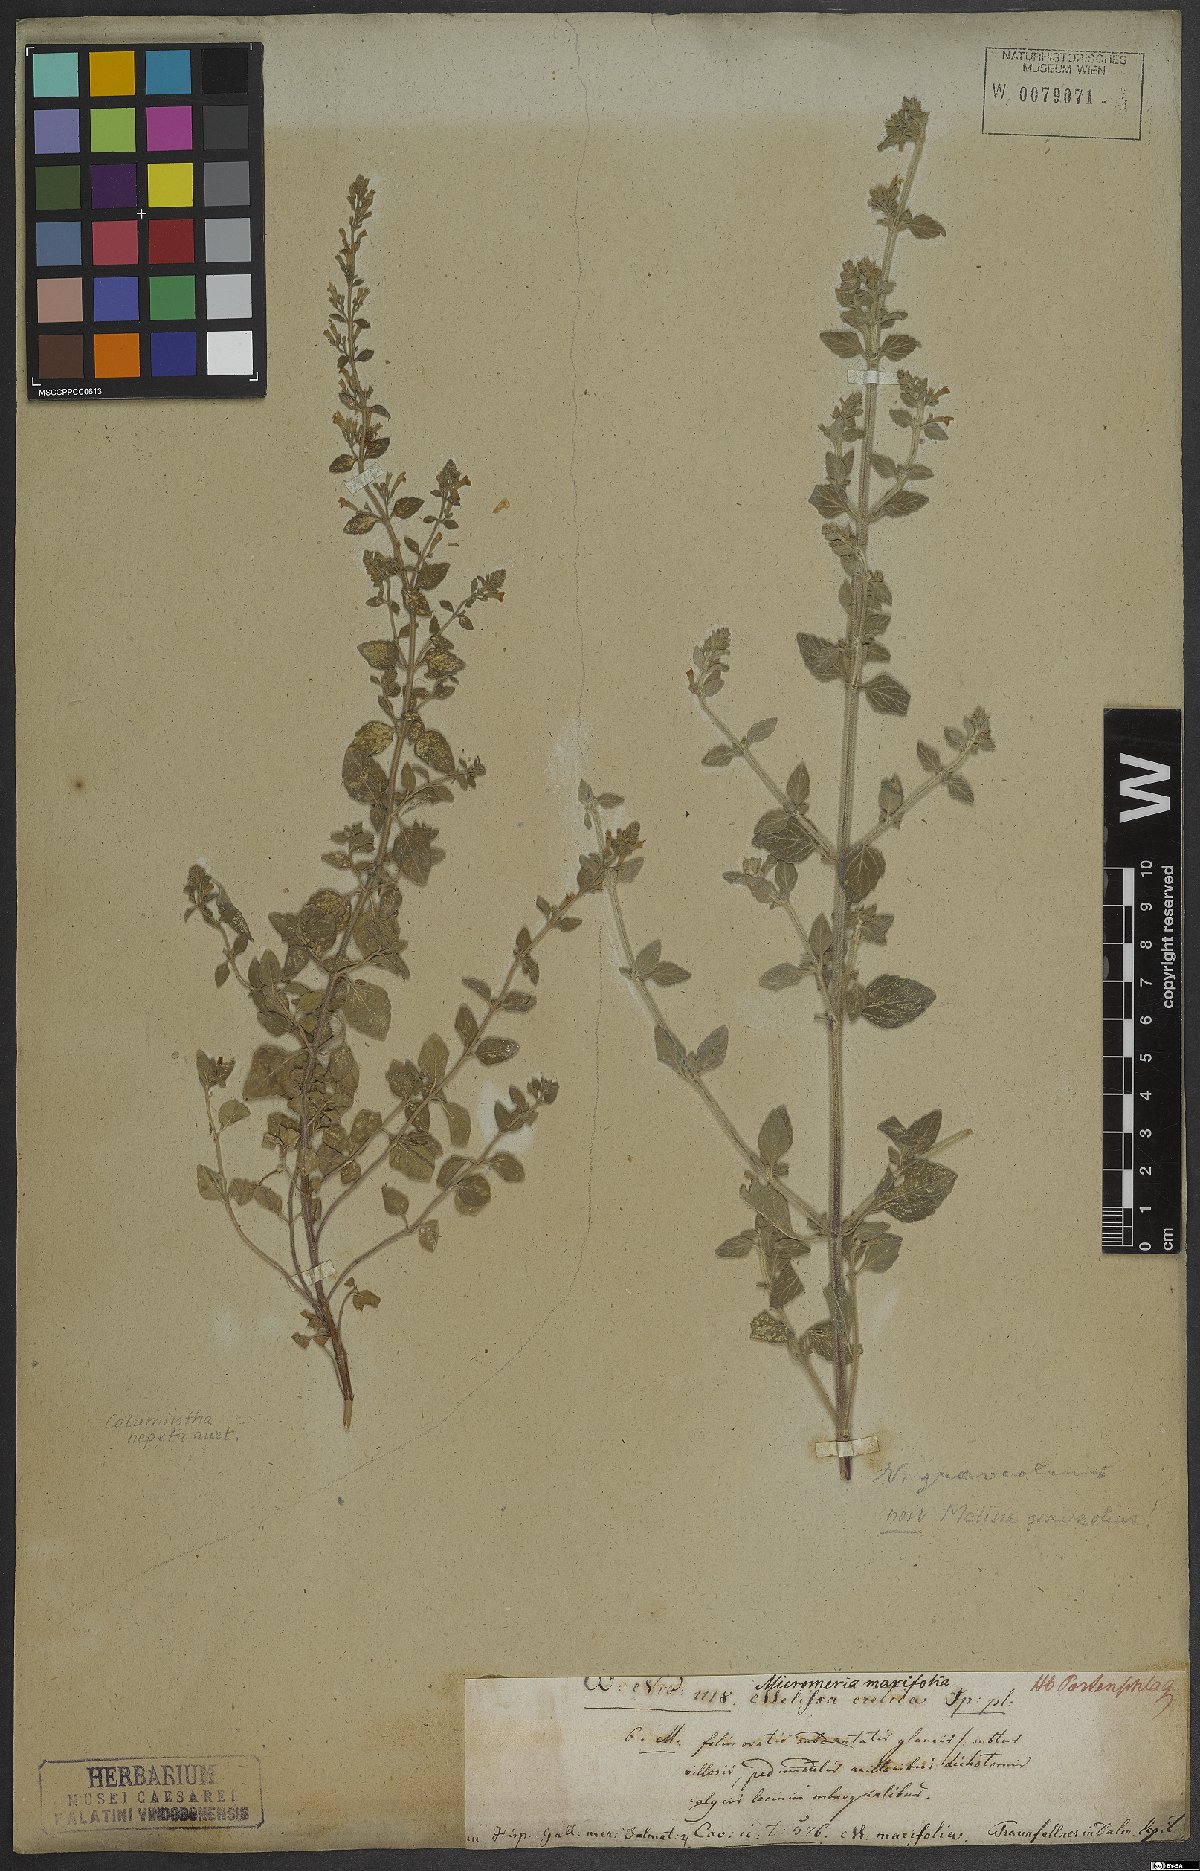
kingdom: Plantae
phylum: Tracheophyta
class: Magnoliopsida
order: Lamiales
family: Lamiaceae
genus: Calamintha
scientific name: Calamintha
